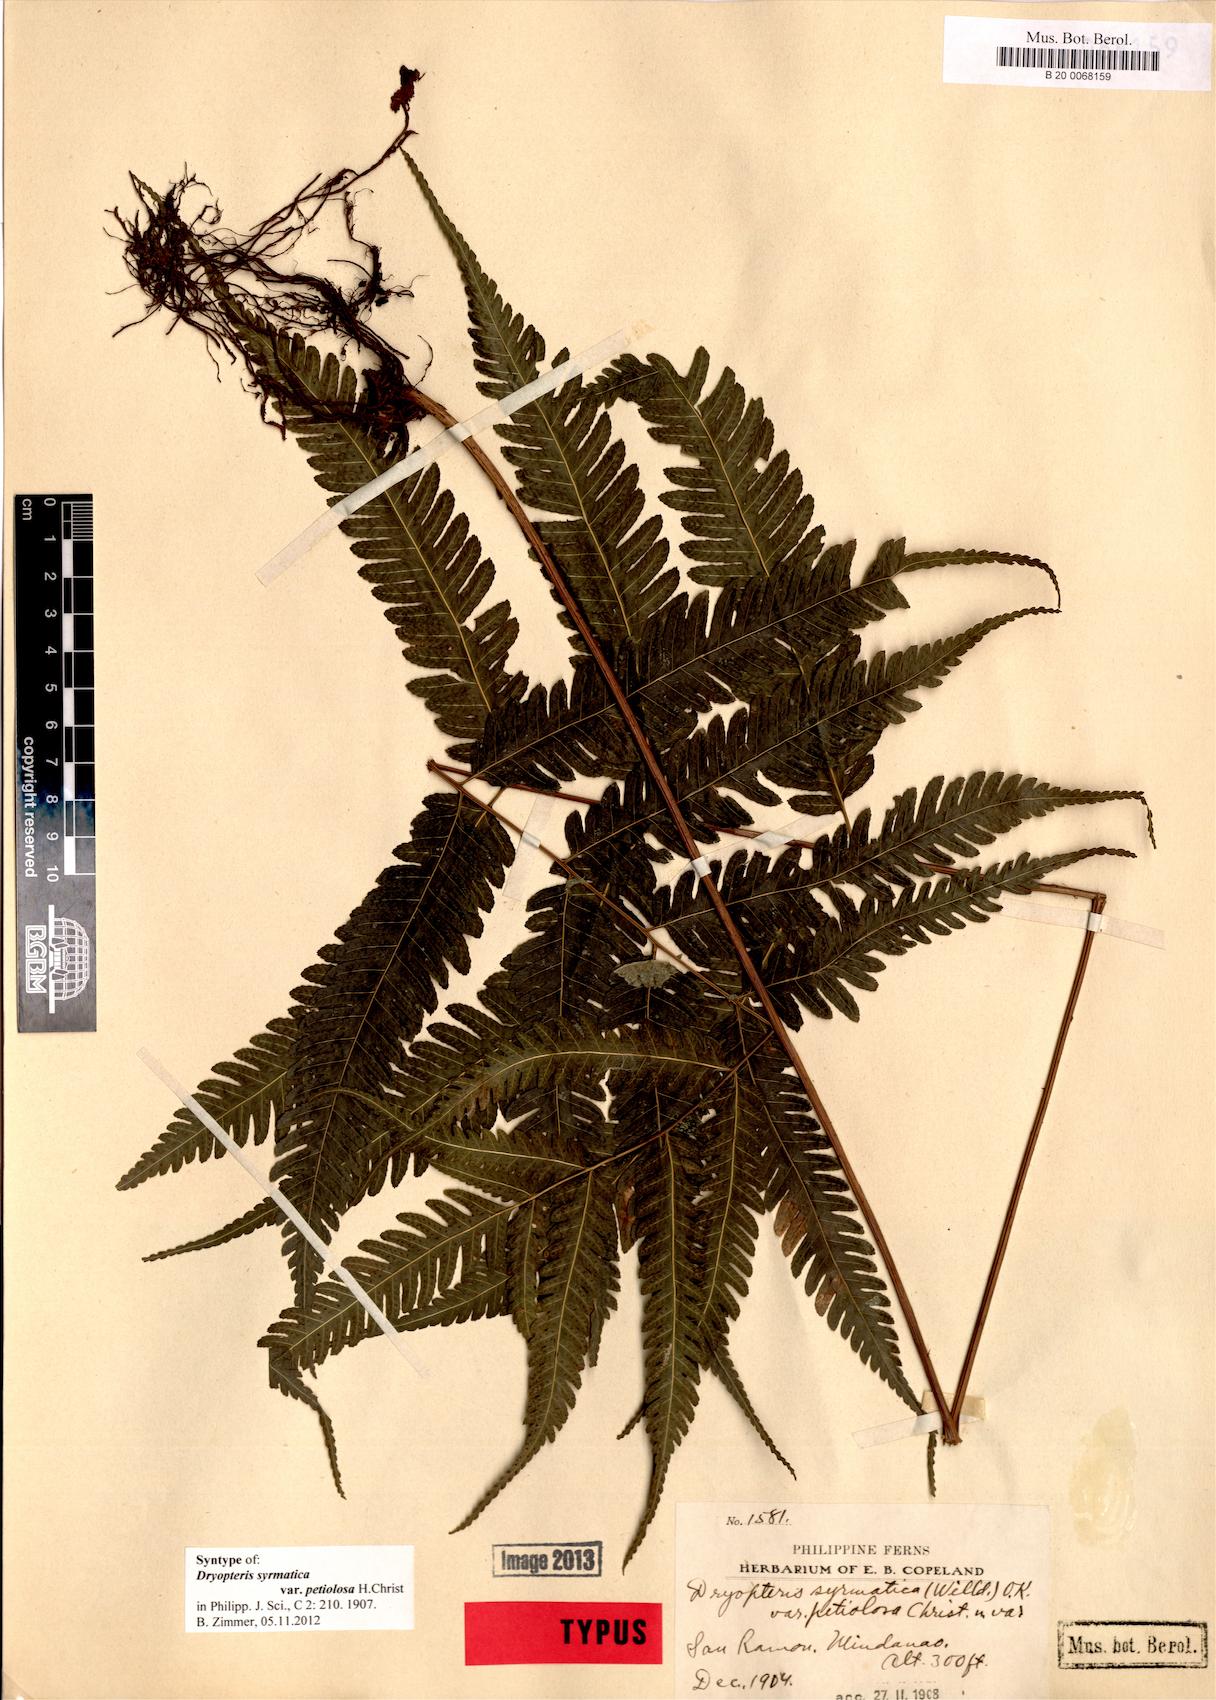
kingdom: Plantae
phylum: Tracheophyta
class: Polypodiopsida
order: Polypodiales
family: Tectariaceae
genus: Pteridrys
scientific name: Pteridrys syrmatica
